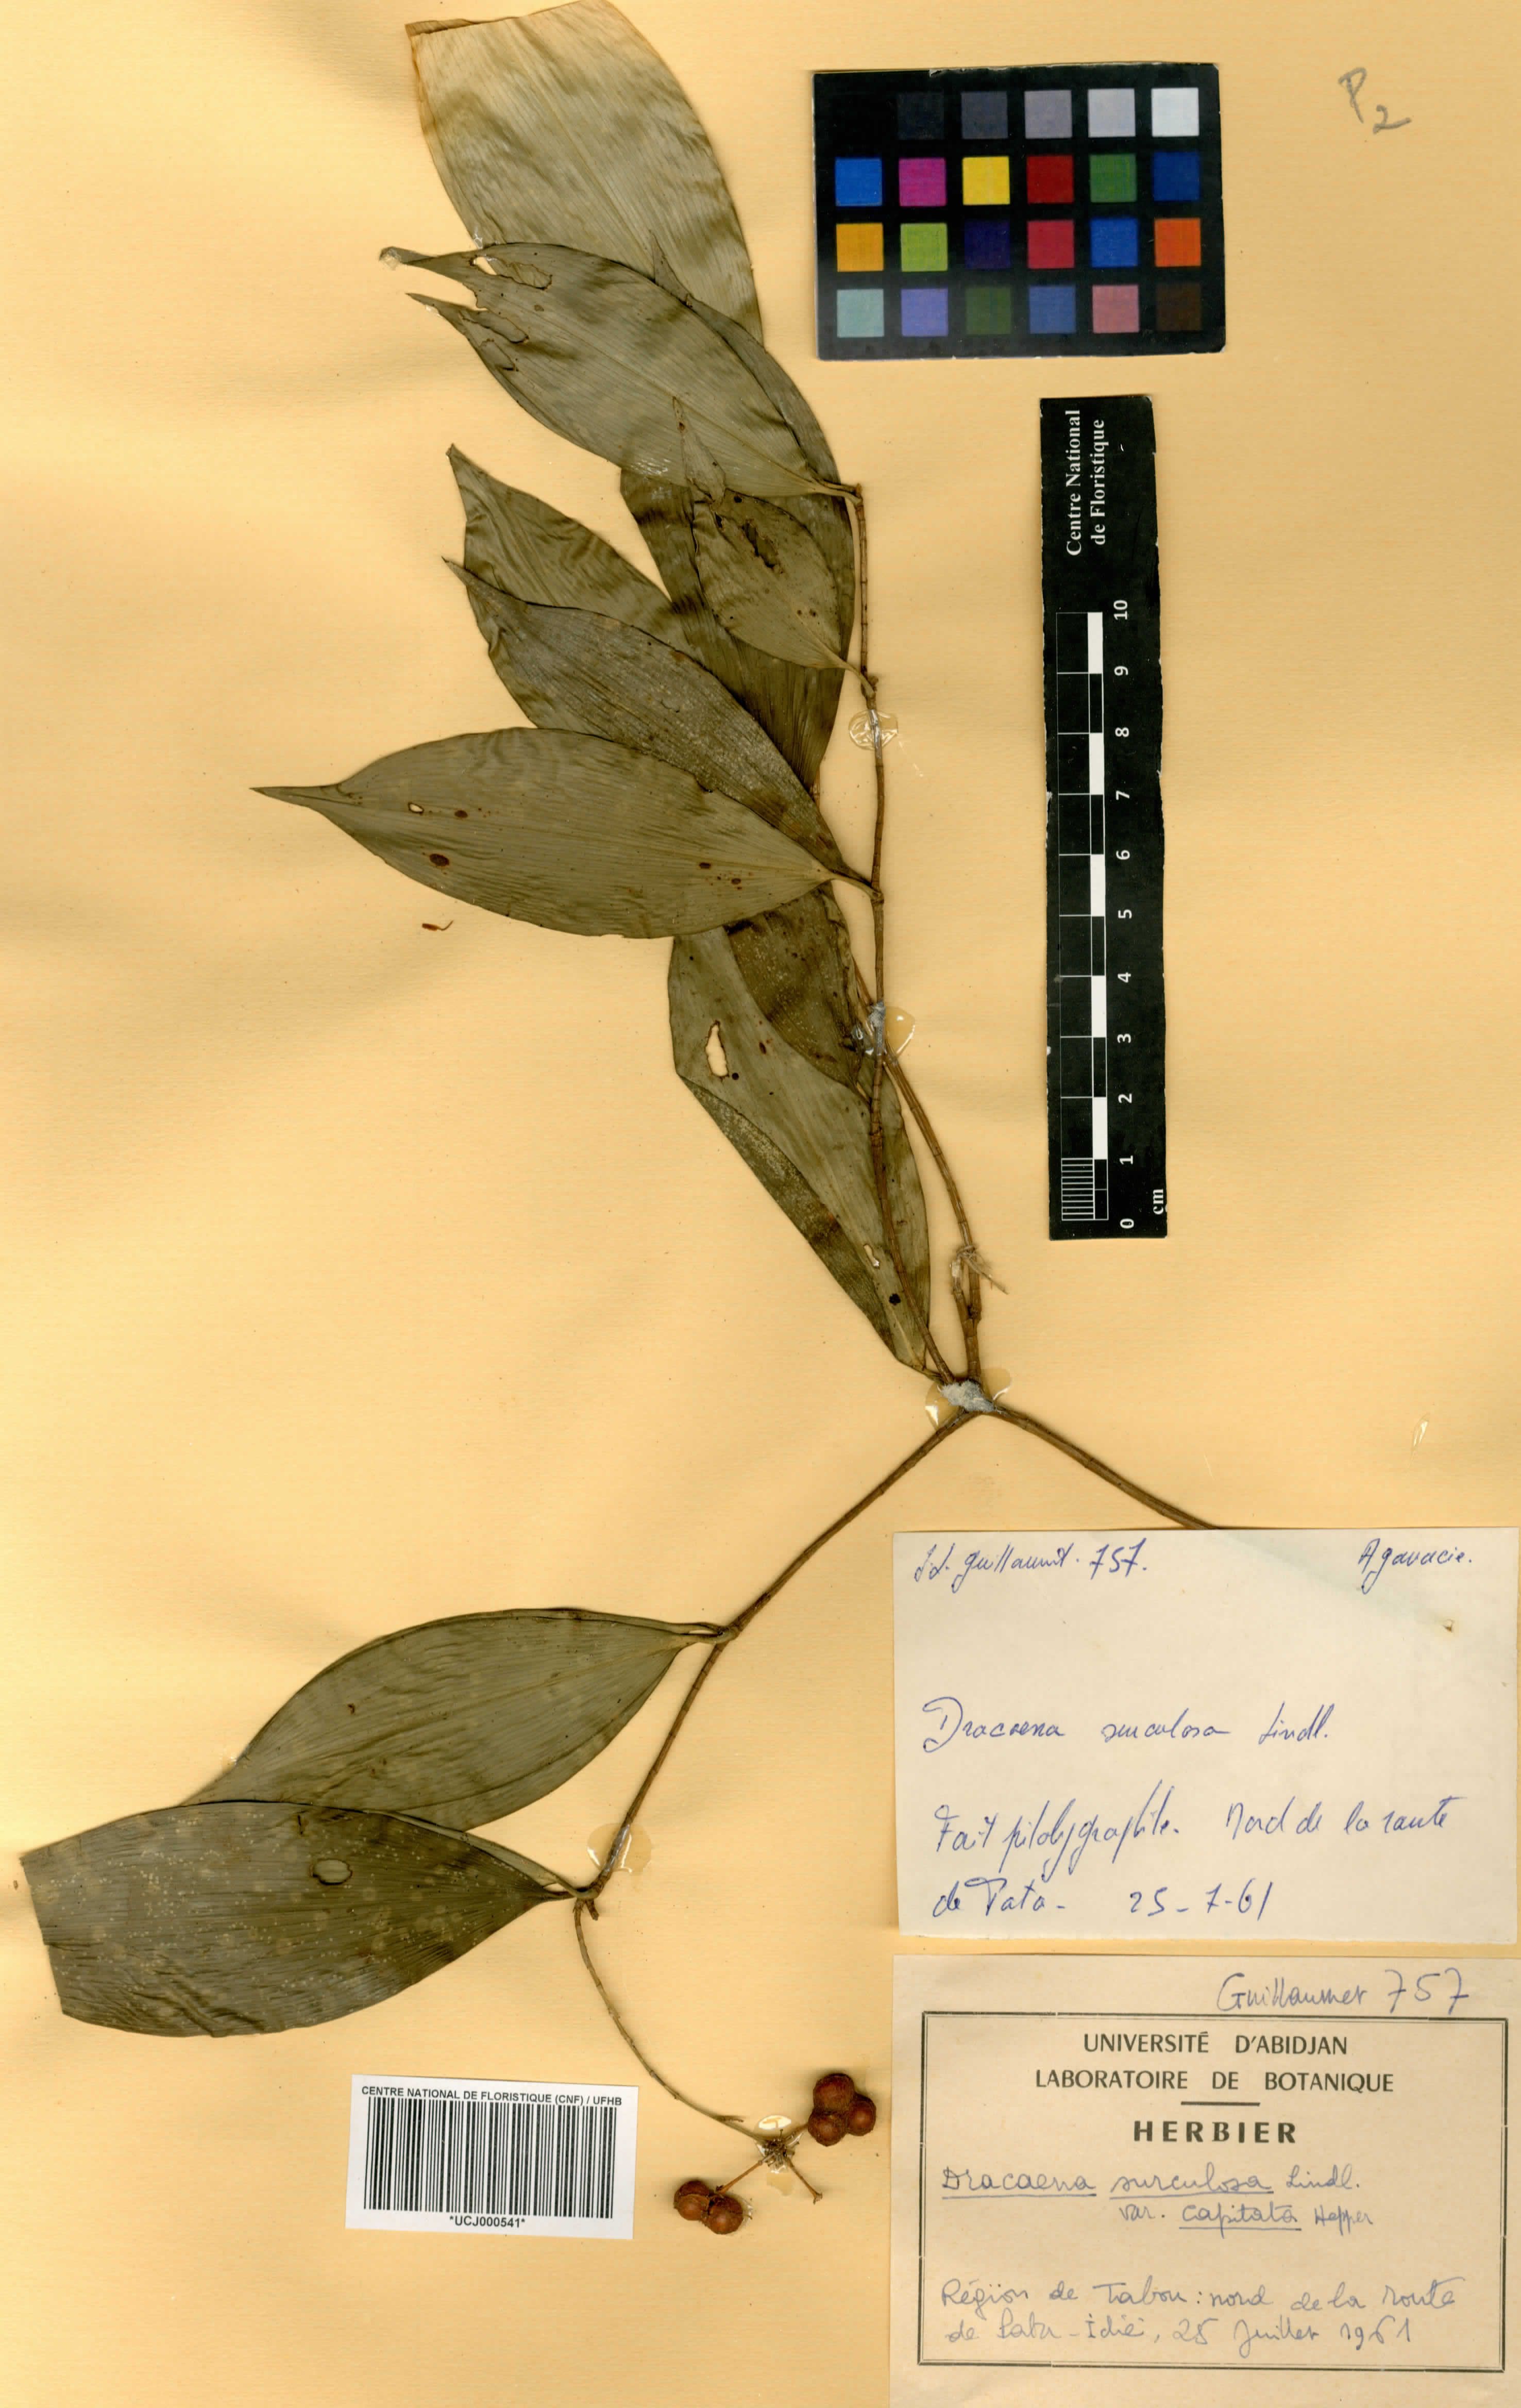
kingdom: Plantae
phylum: Tracheophyta
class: Liliopsida
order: Asparagales
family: Asparagaceae
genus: Dracaena
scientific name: Dracaena surculosa
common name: Spotted dracaena
